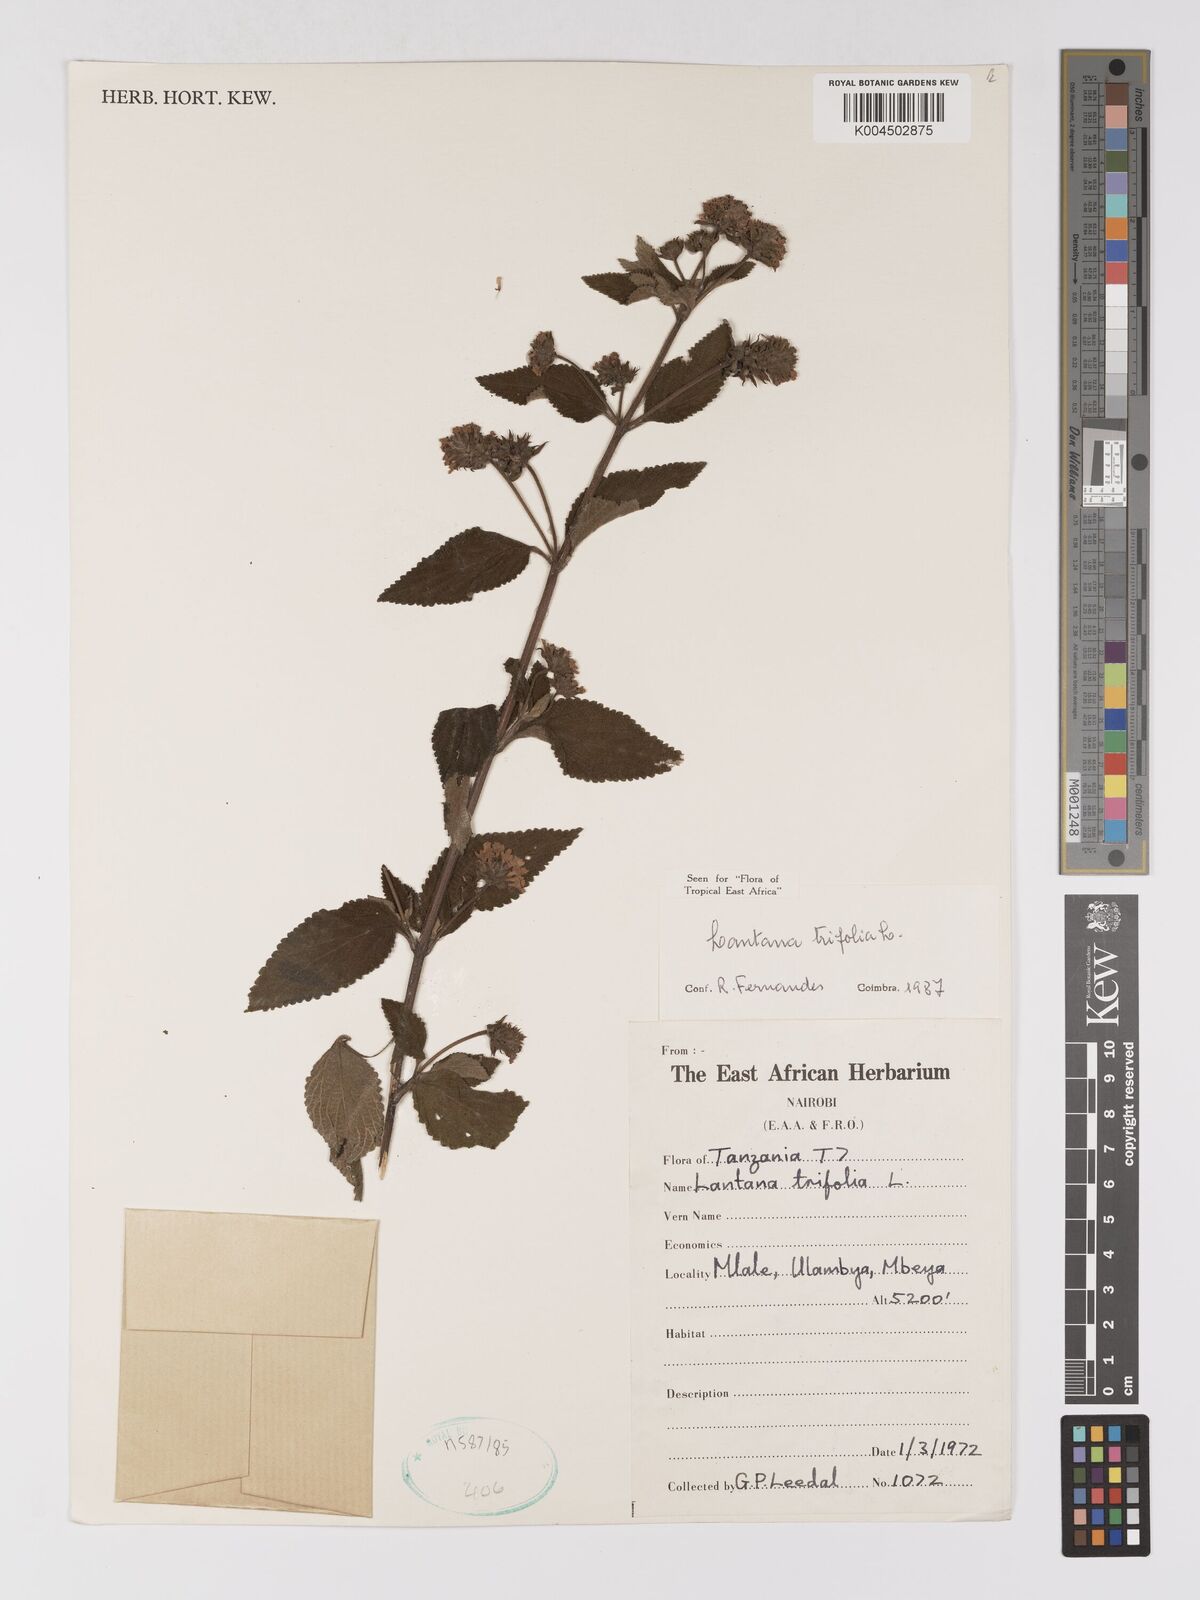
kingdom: Plantae
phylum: Tracheophyta
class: Magnoliopsida
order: Lamiales
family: Verbenaceae
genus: Lantana
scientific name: Lantana trifolia
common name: Sweet-sage
